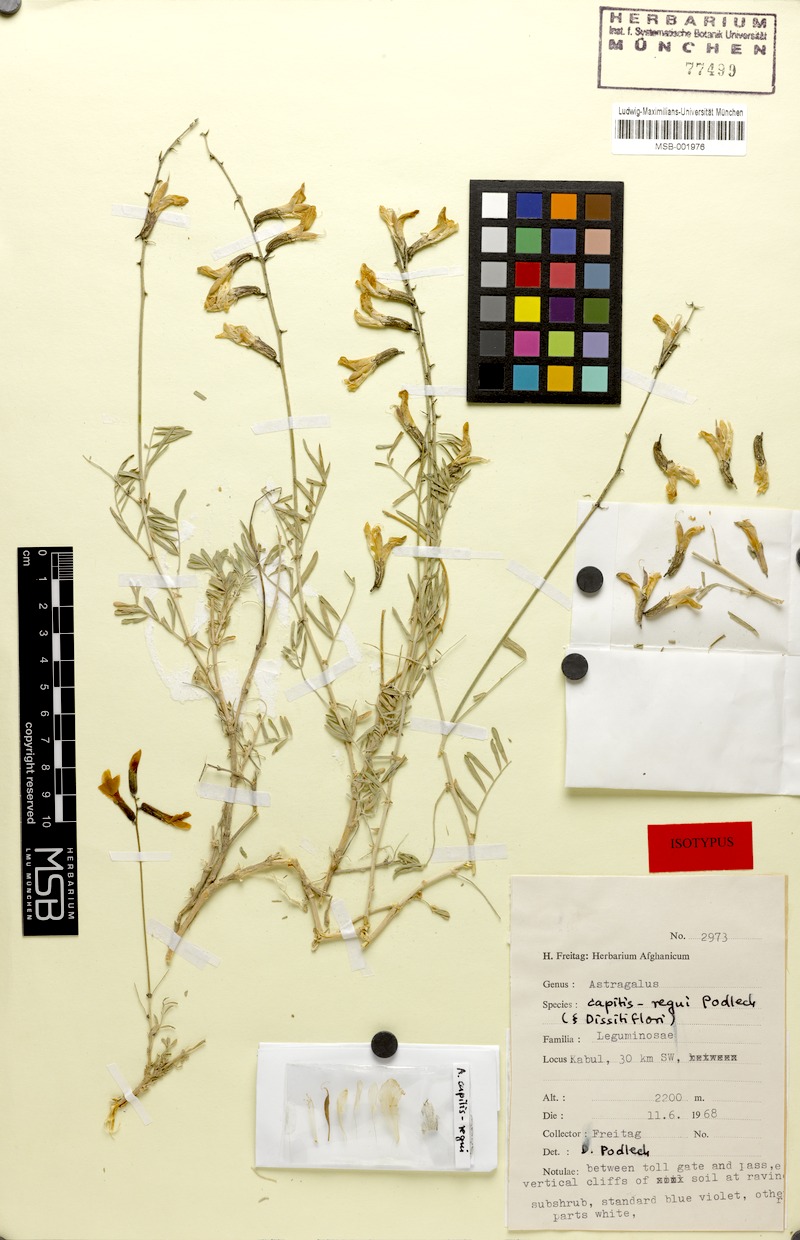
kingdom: Plantae
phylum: Tracheophyta
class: Magnoliopsida
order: Fabales
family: Fabaceae
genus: Astragalus
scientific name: Astragalus capitis-regni
